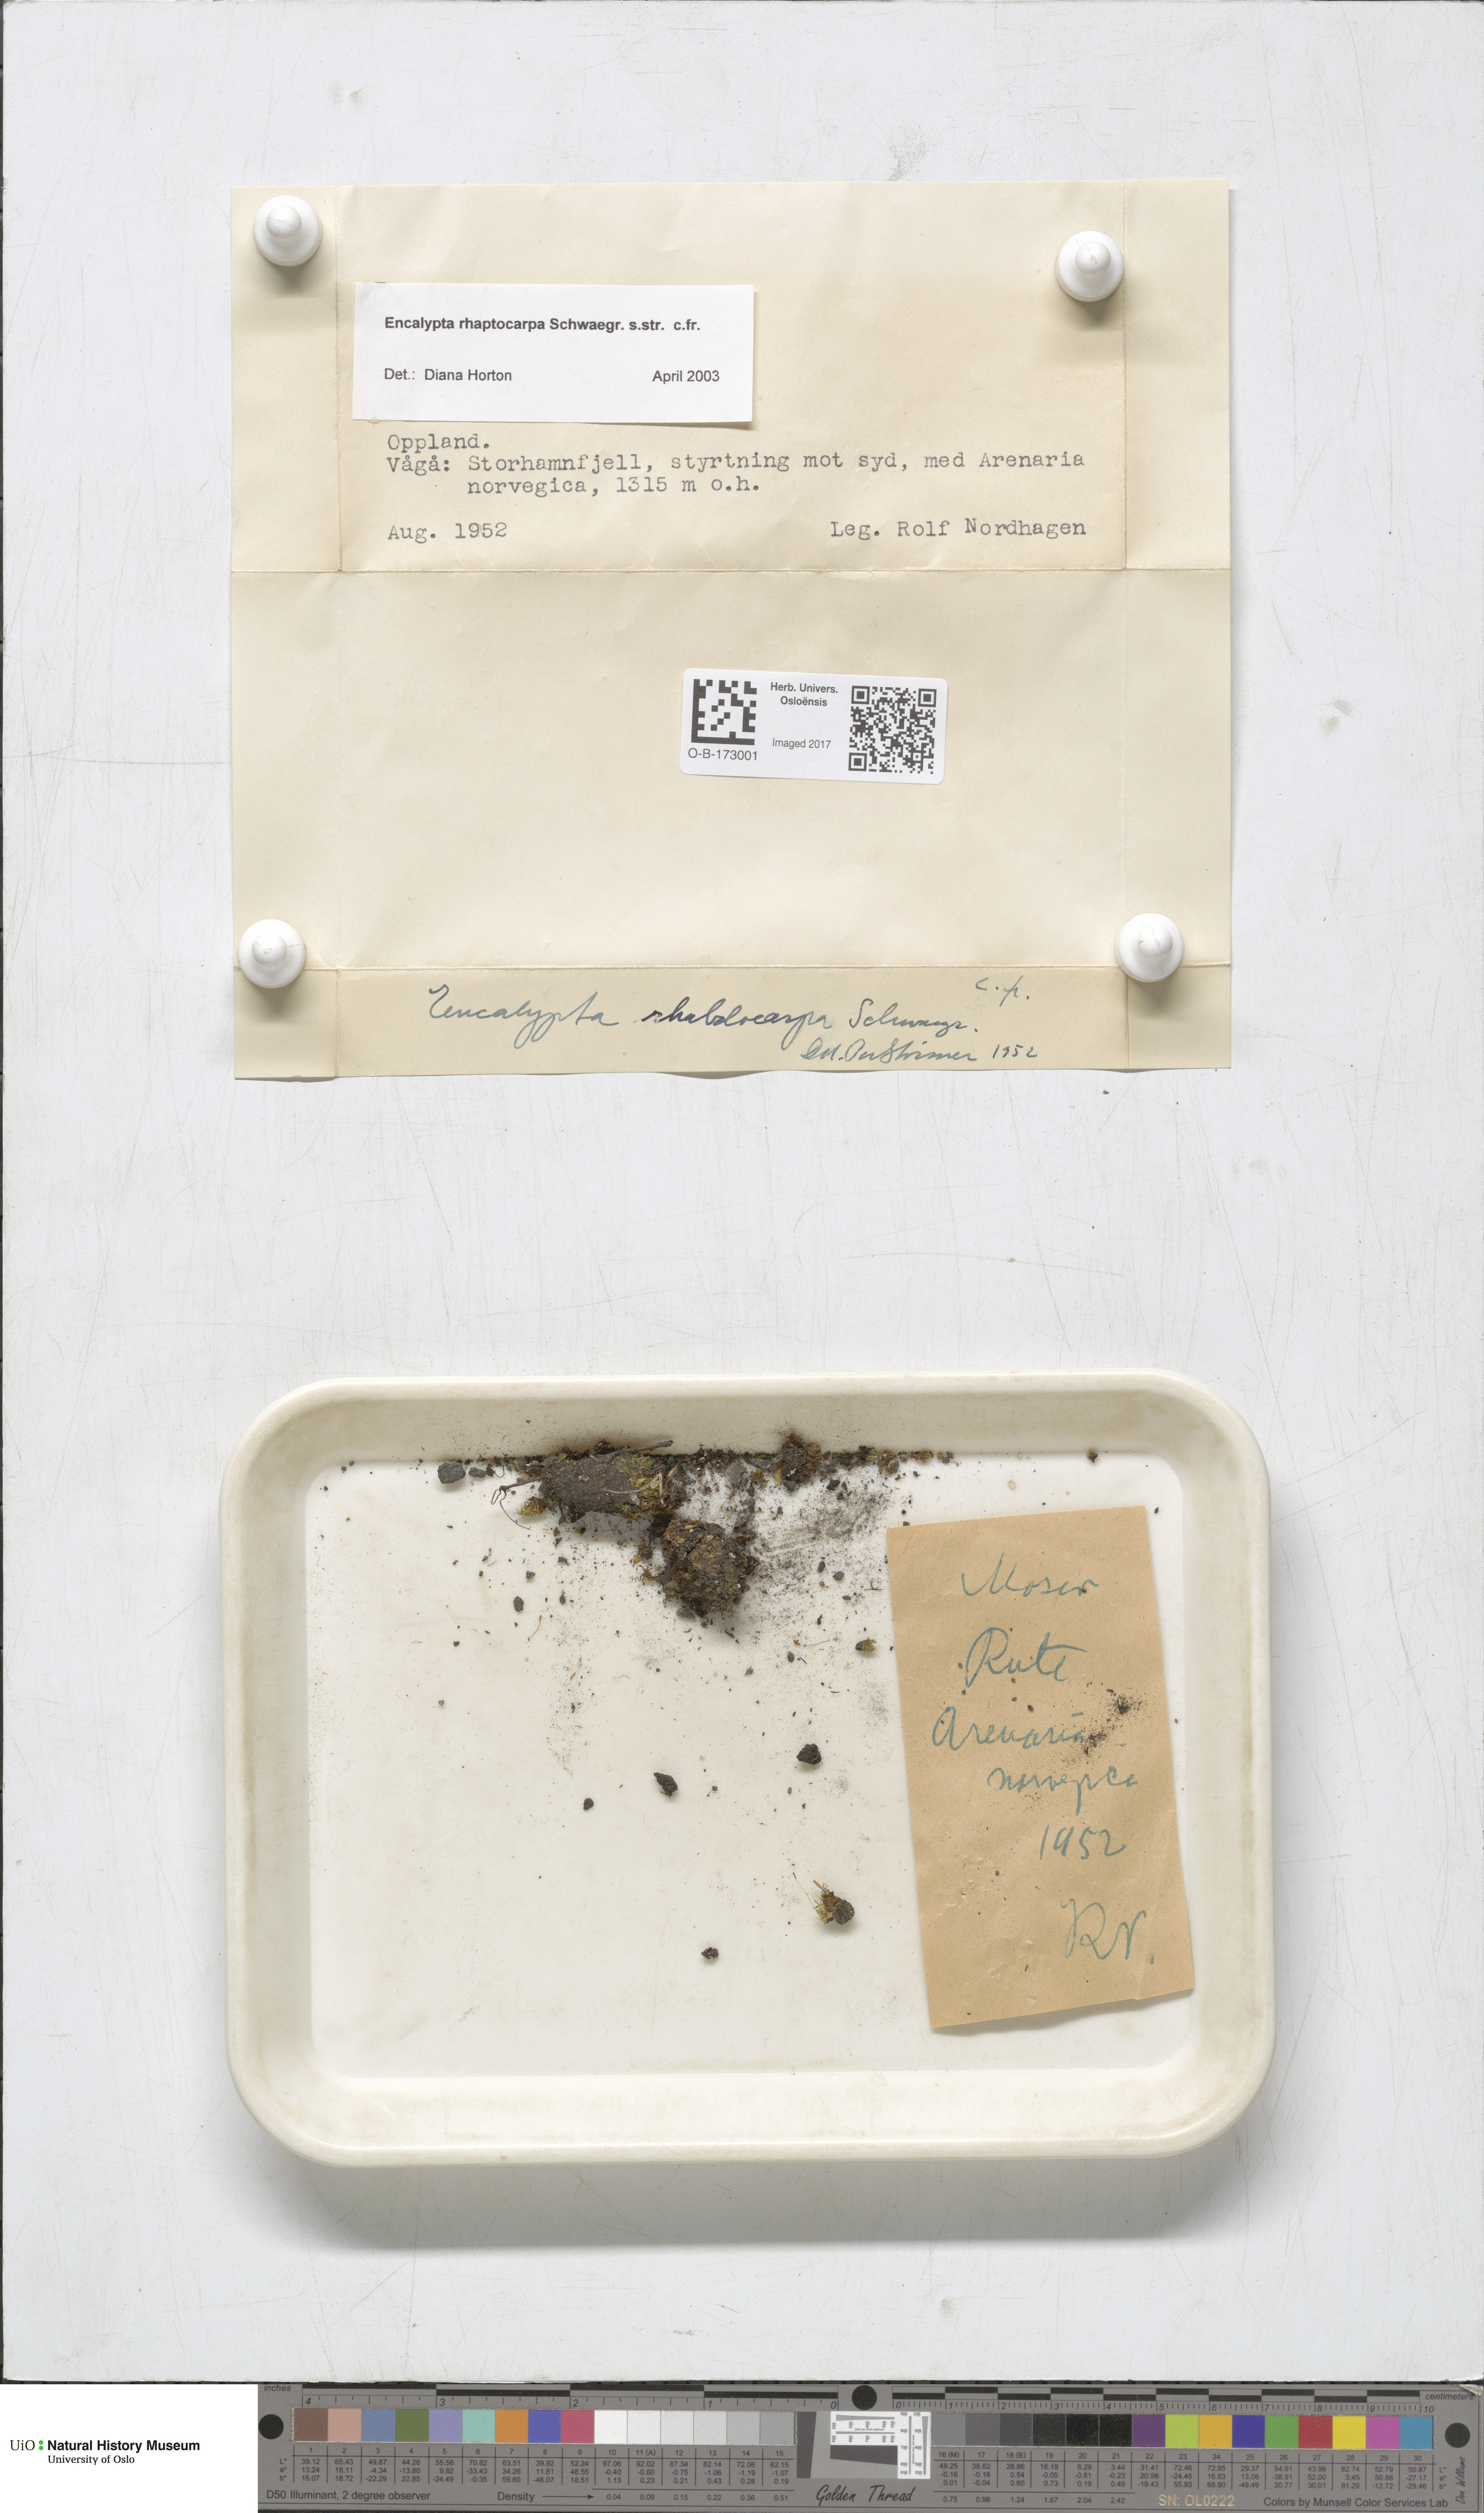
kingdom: Plantae
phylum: Bryophyta
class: Bryopsida
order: Encalyptales
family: Encalyptaceae
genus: Encalypta
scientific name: Encalypta rhaptocarpa
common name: Ribbed extinguisher moss
